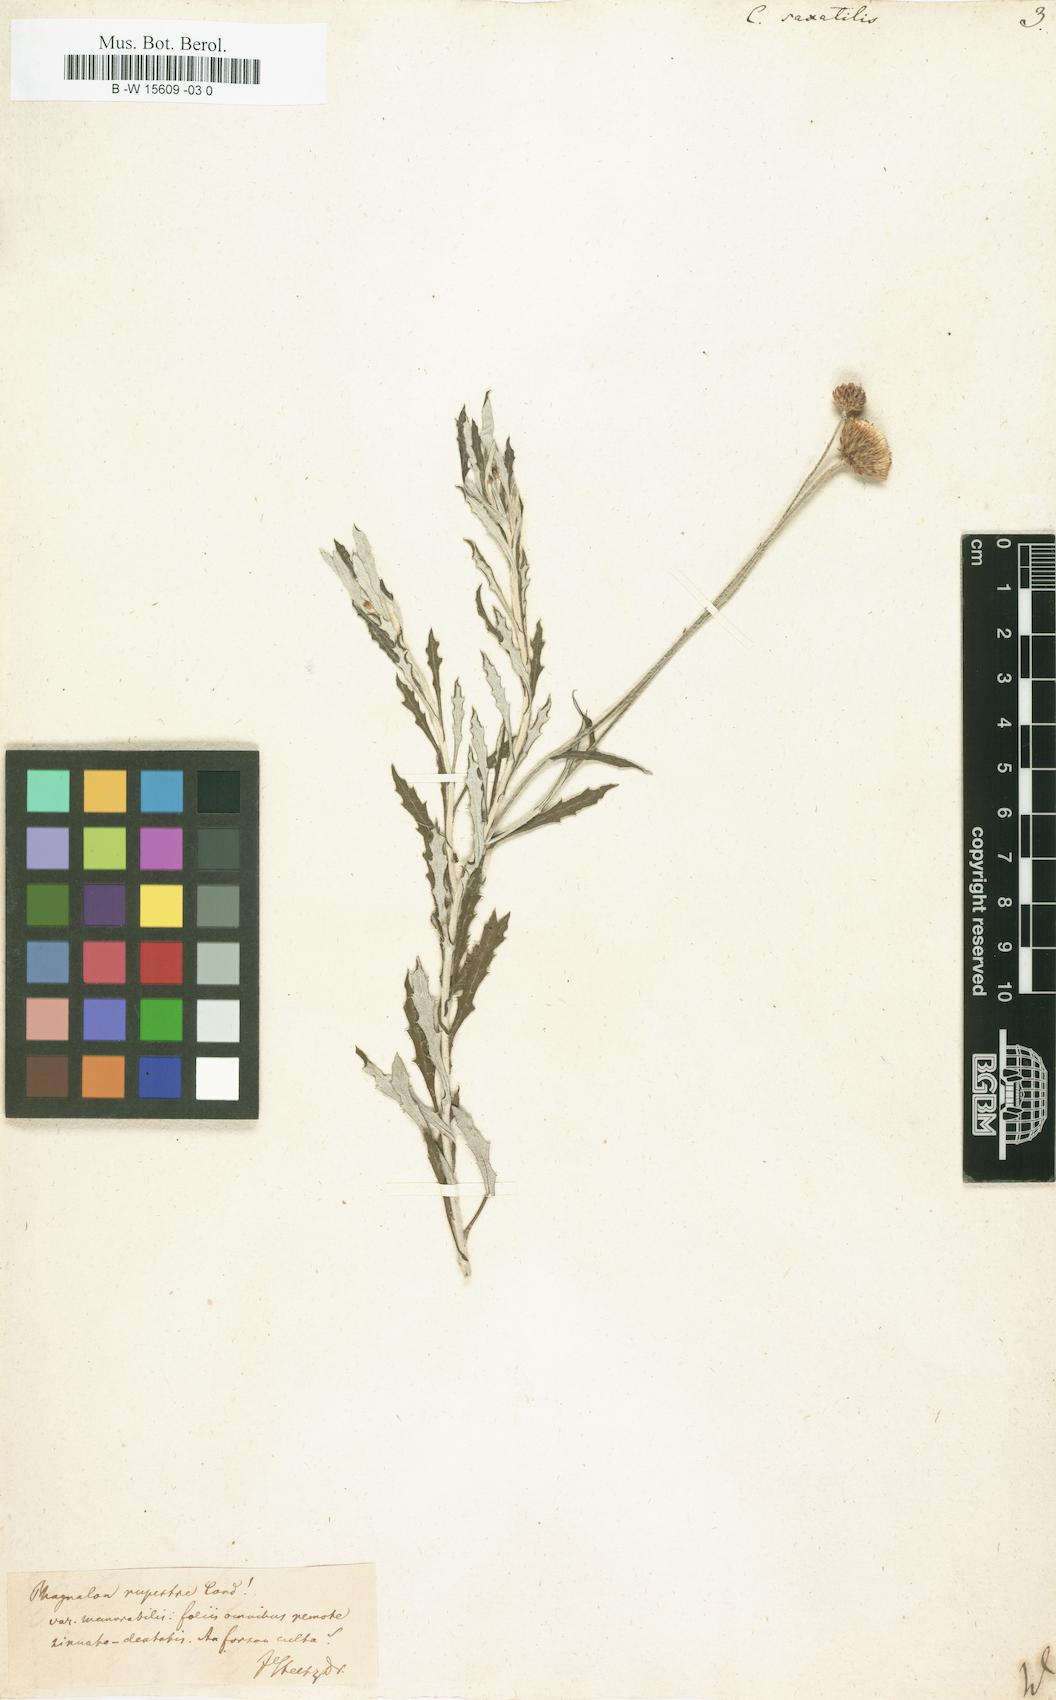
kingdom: Plantae
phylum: Tracheophyta
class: Magnoliopsida
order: Asterales
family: Asteraceae
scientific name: Asteraceae
